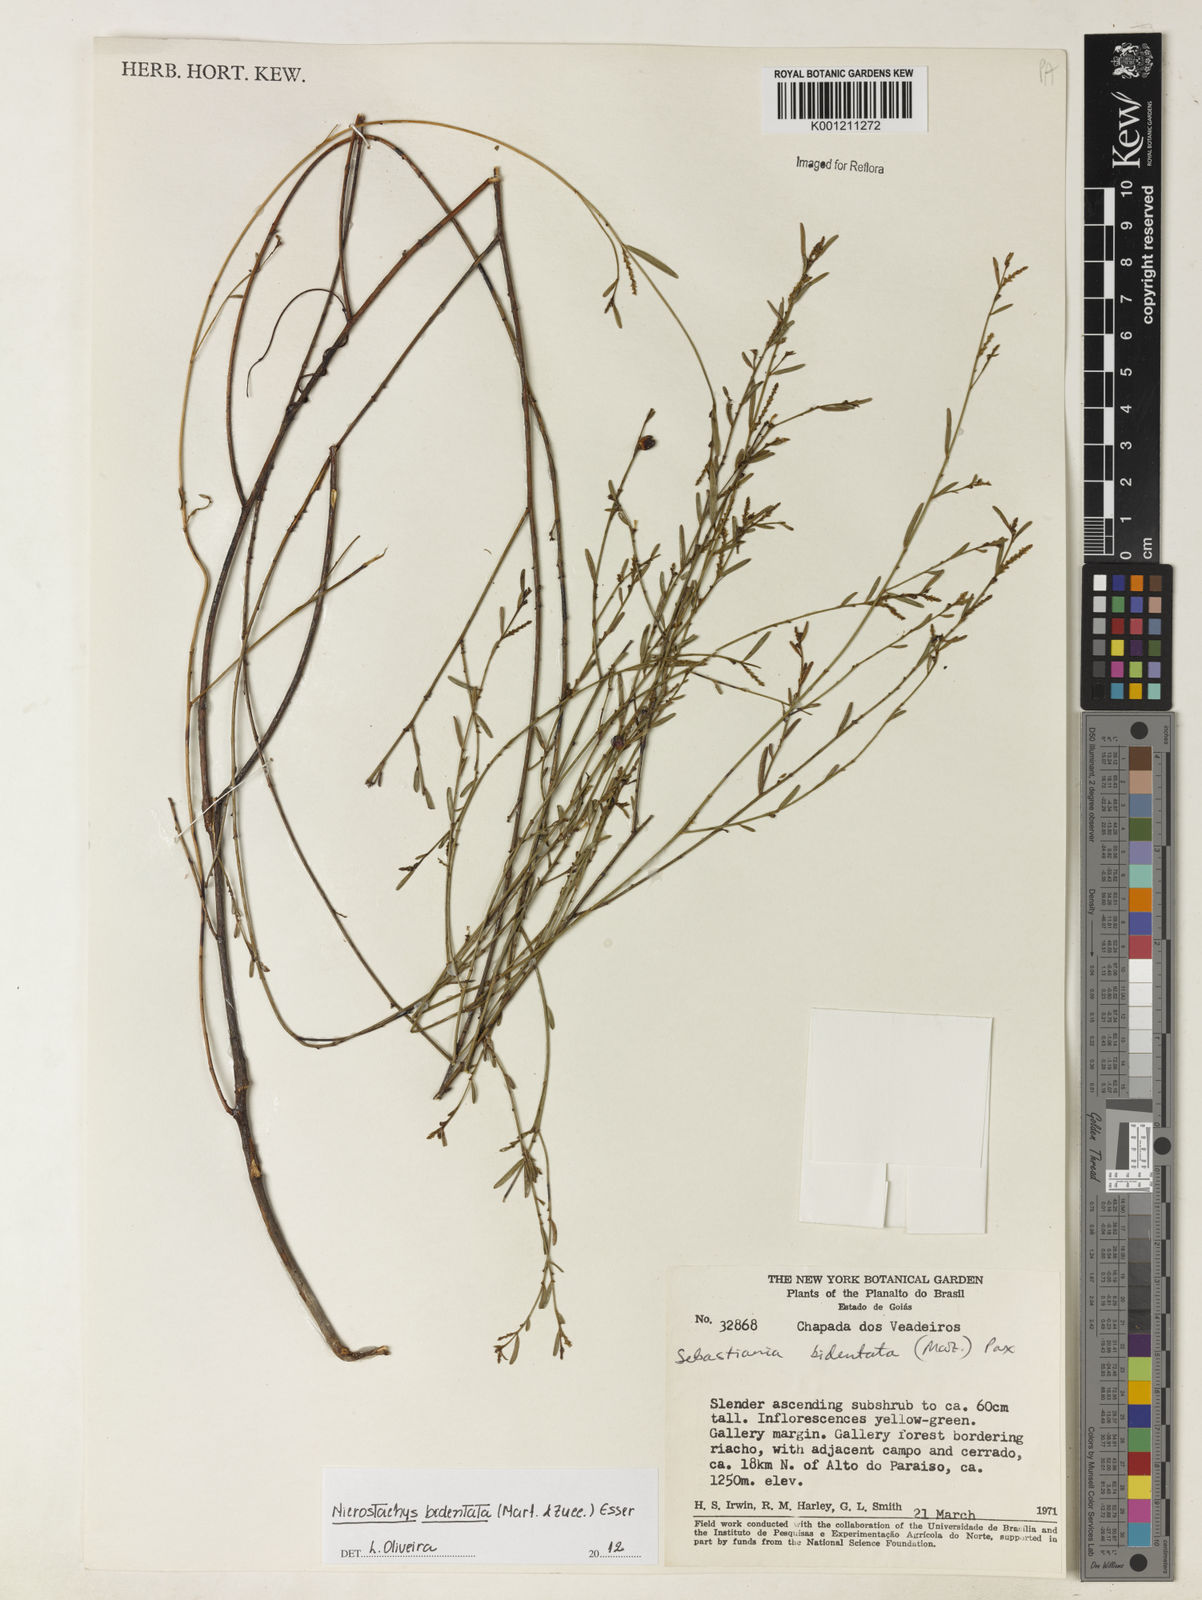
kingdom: Plantae
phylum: Tracheophyta
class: Magnoliopsida
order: Malpighiales
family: Euphorbiaceae
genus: Microstachys
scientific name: Microstachys bidentata
